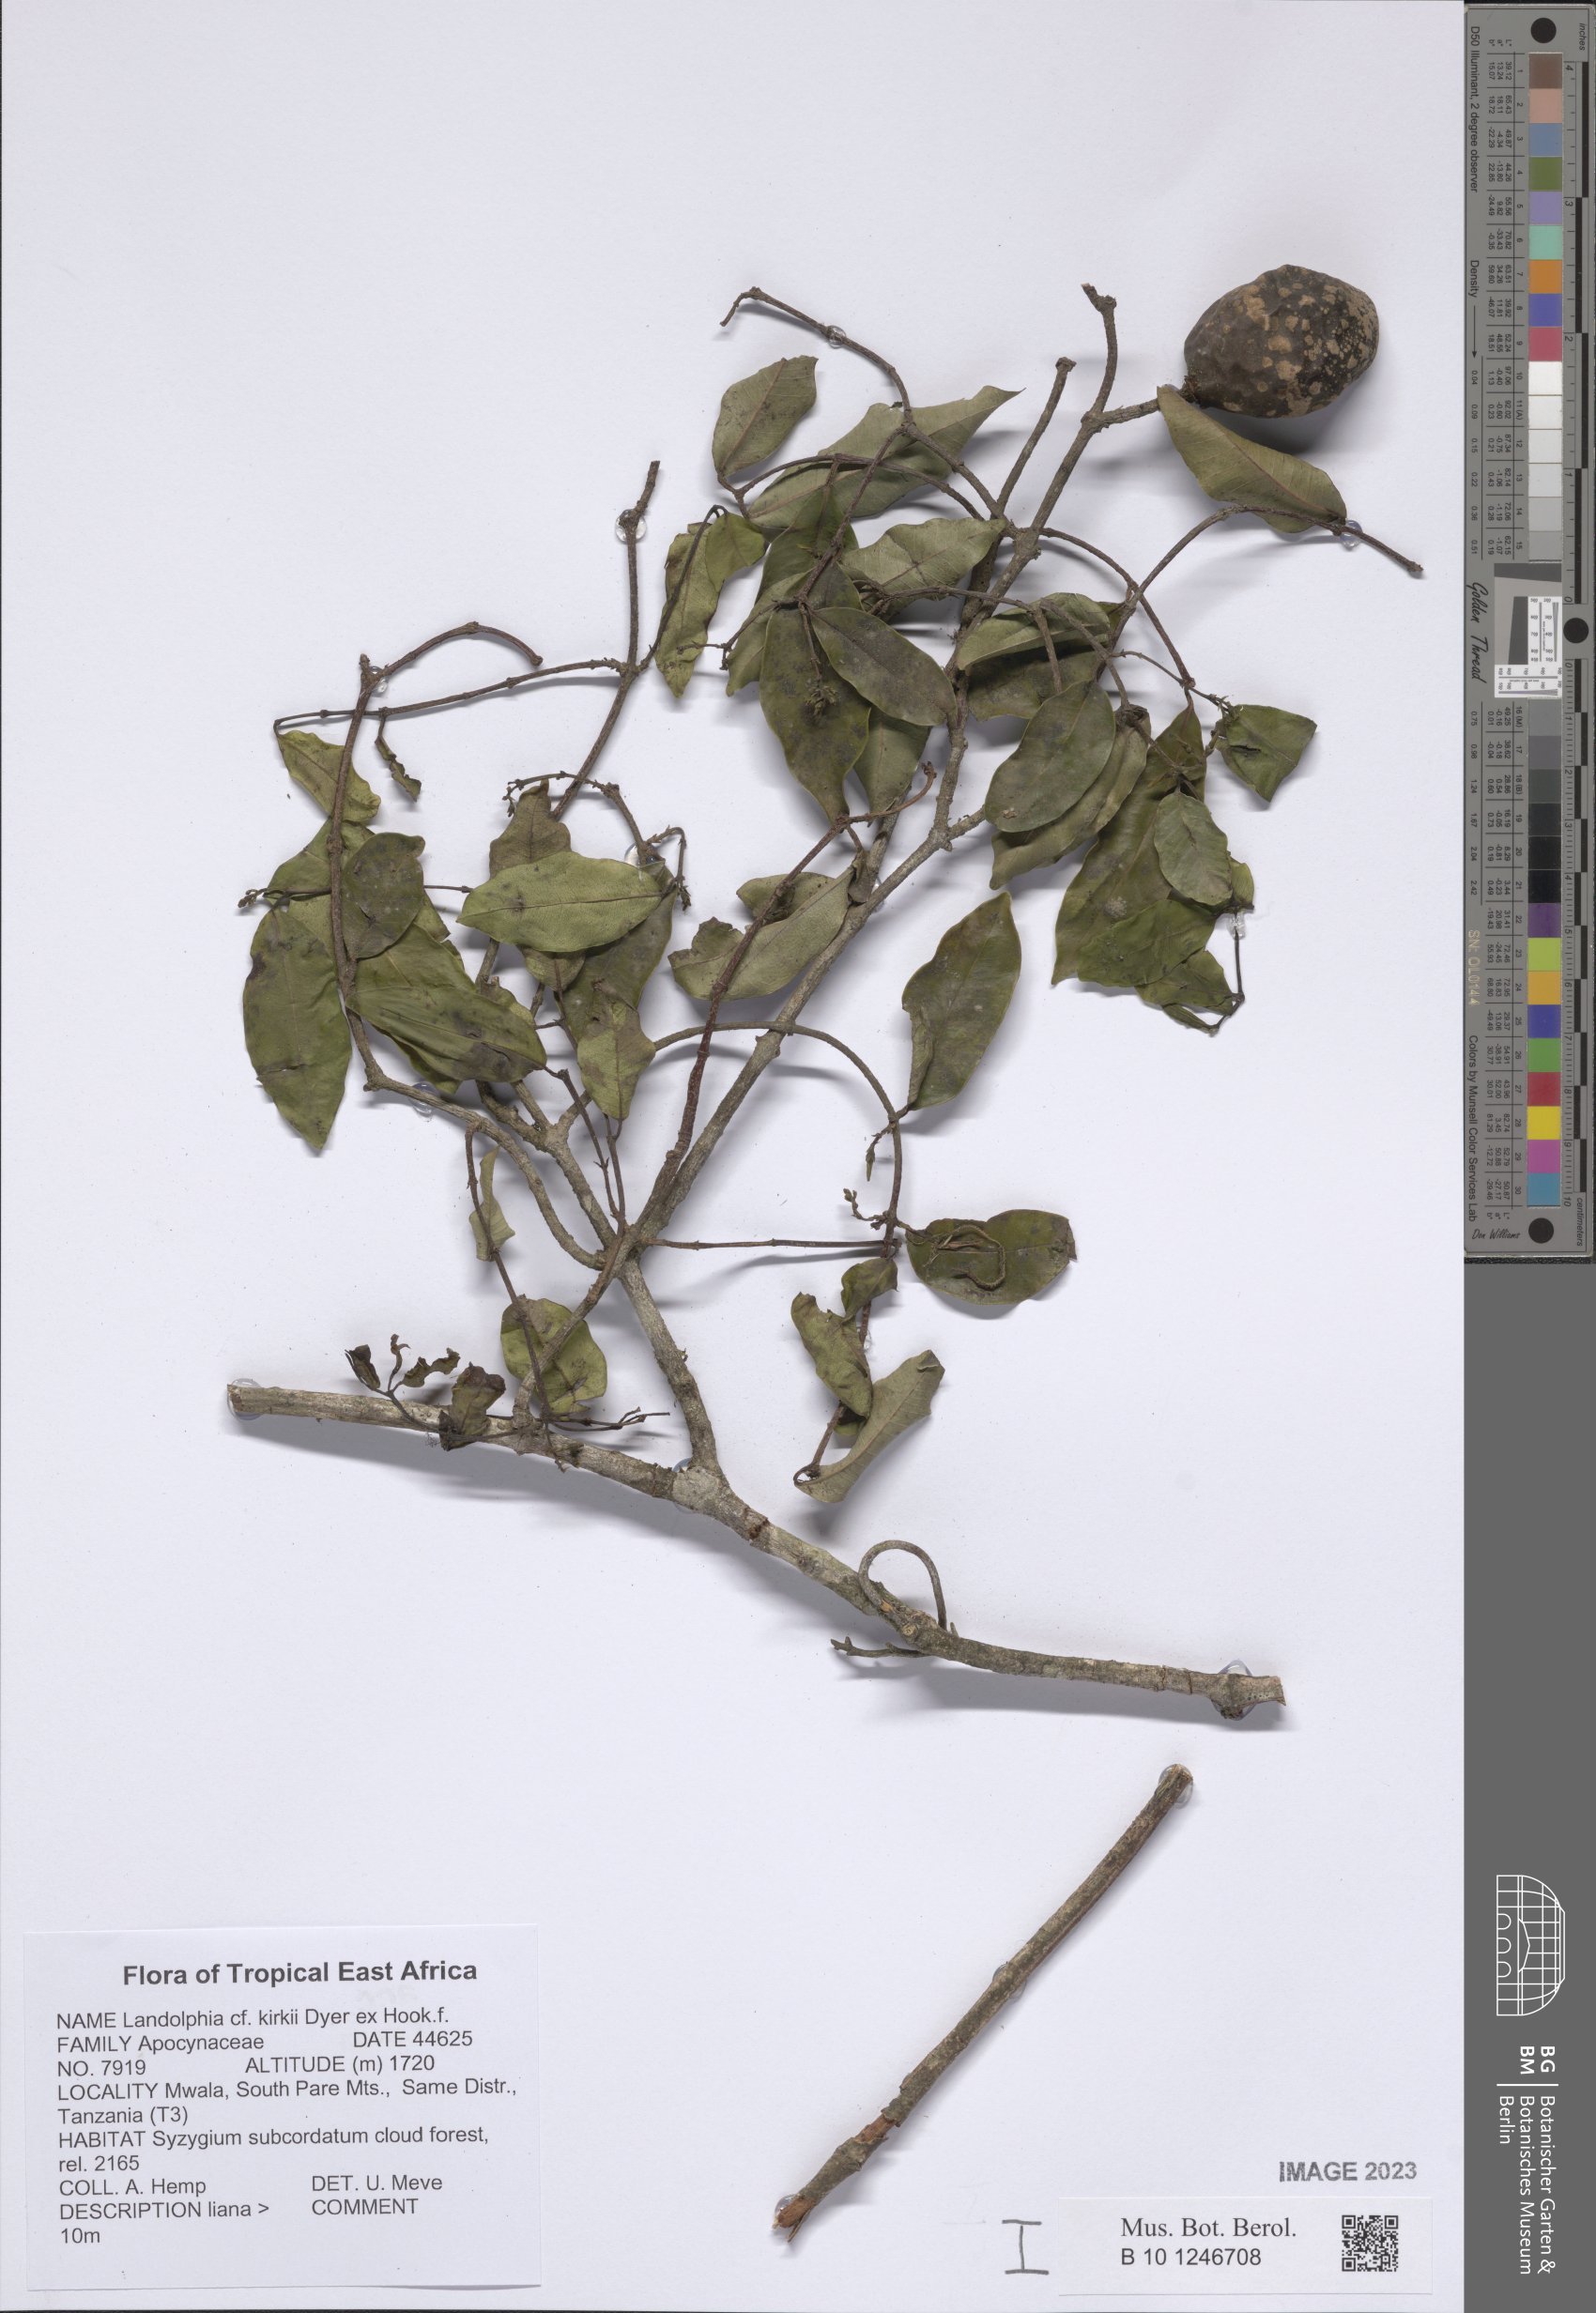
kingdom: Plantae
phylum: Tracheophyta
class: Magnoliopsida
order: Gentianales
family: Apocynaceae
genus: Landolphia
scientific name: Landolphia kirkii
